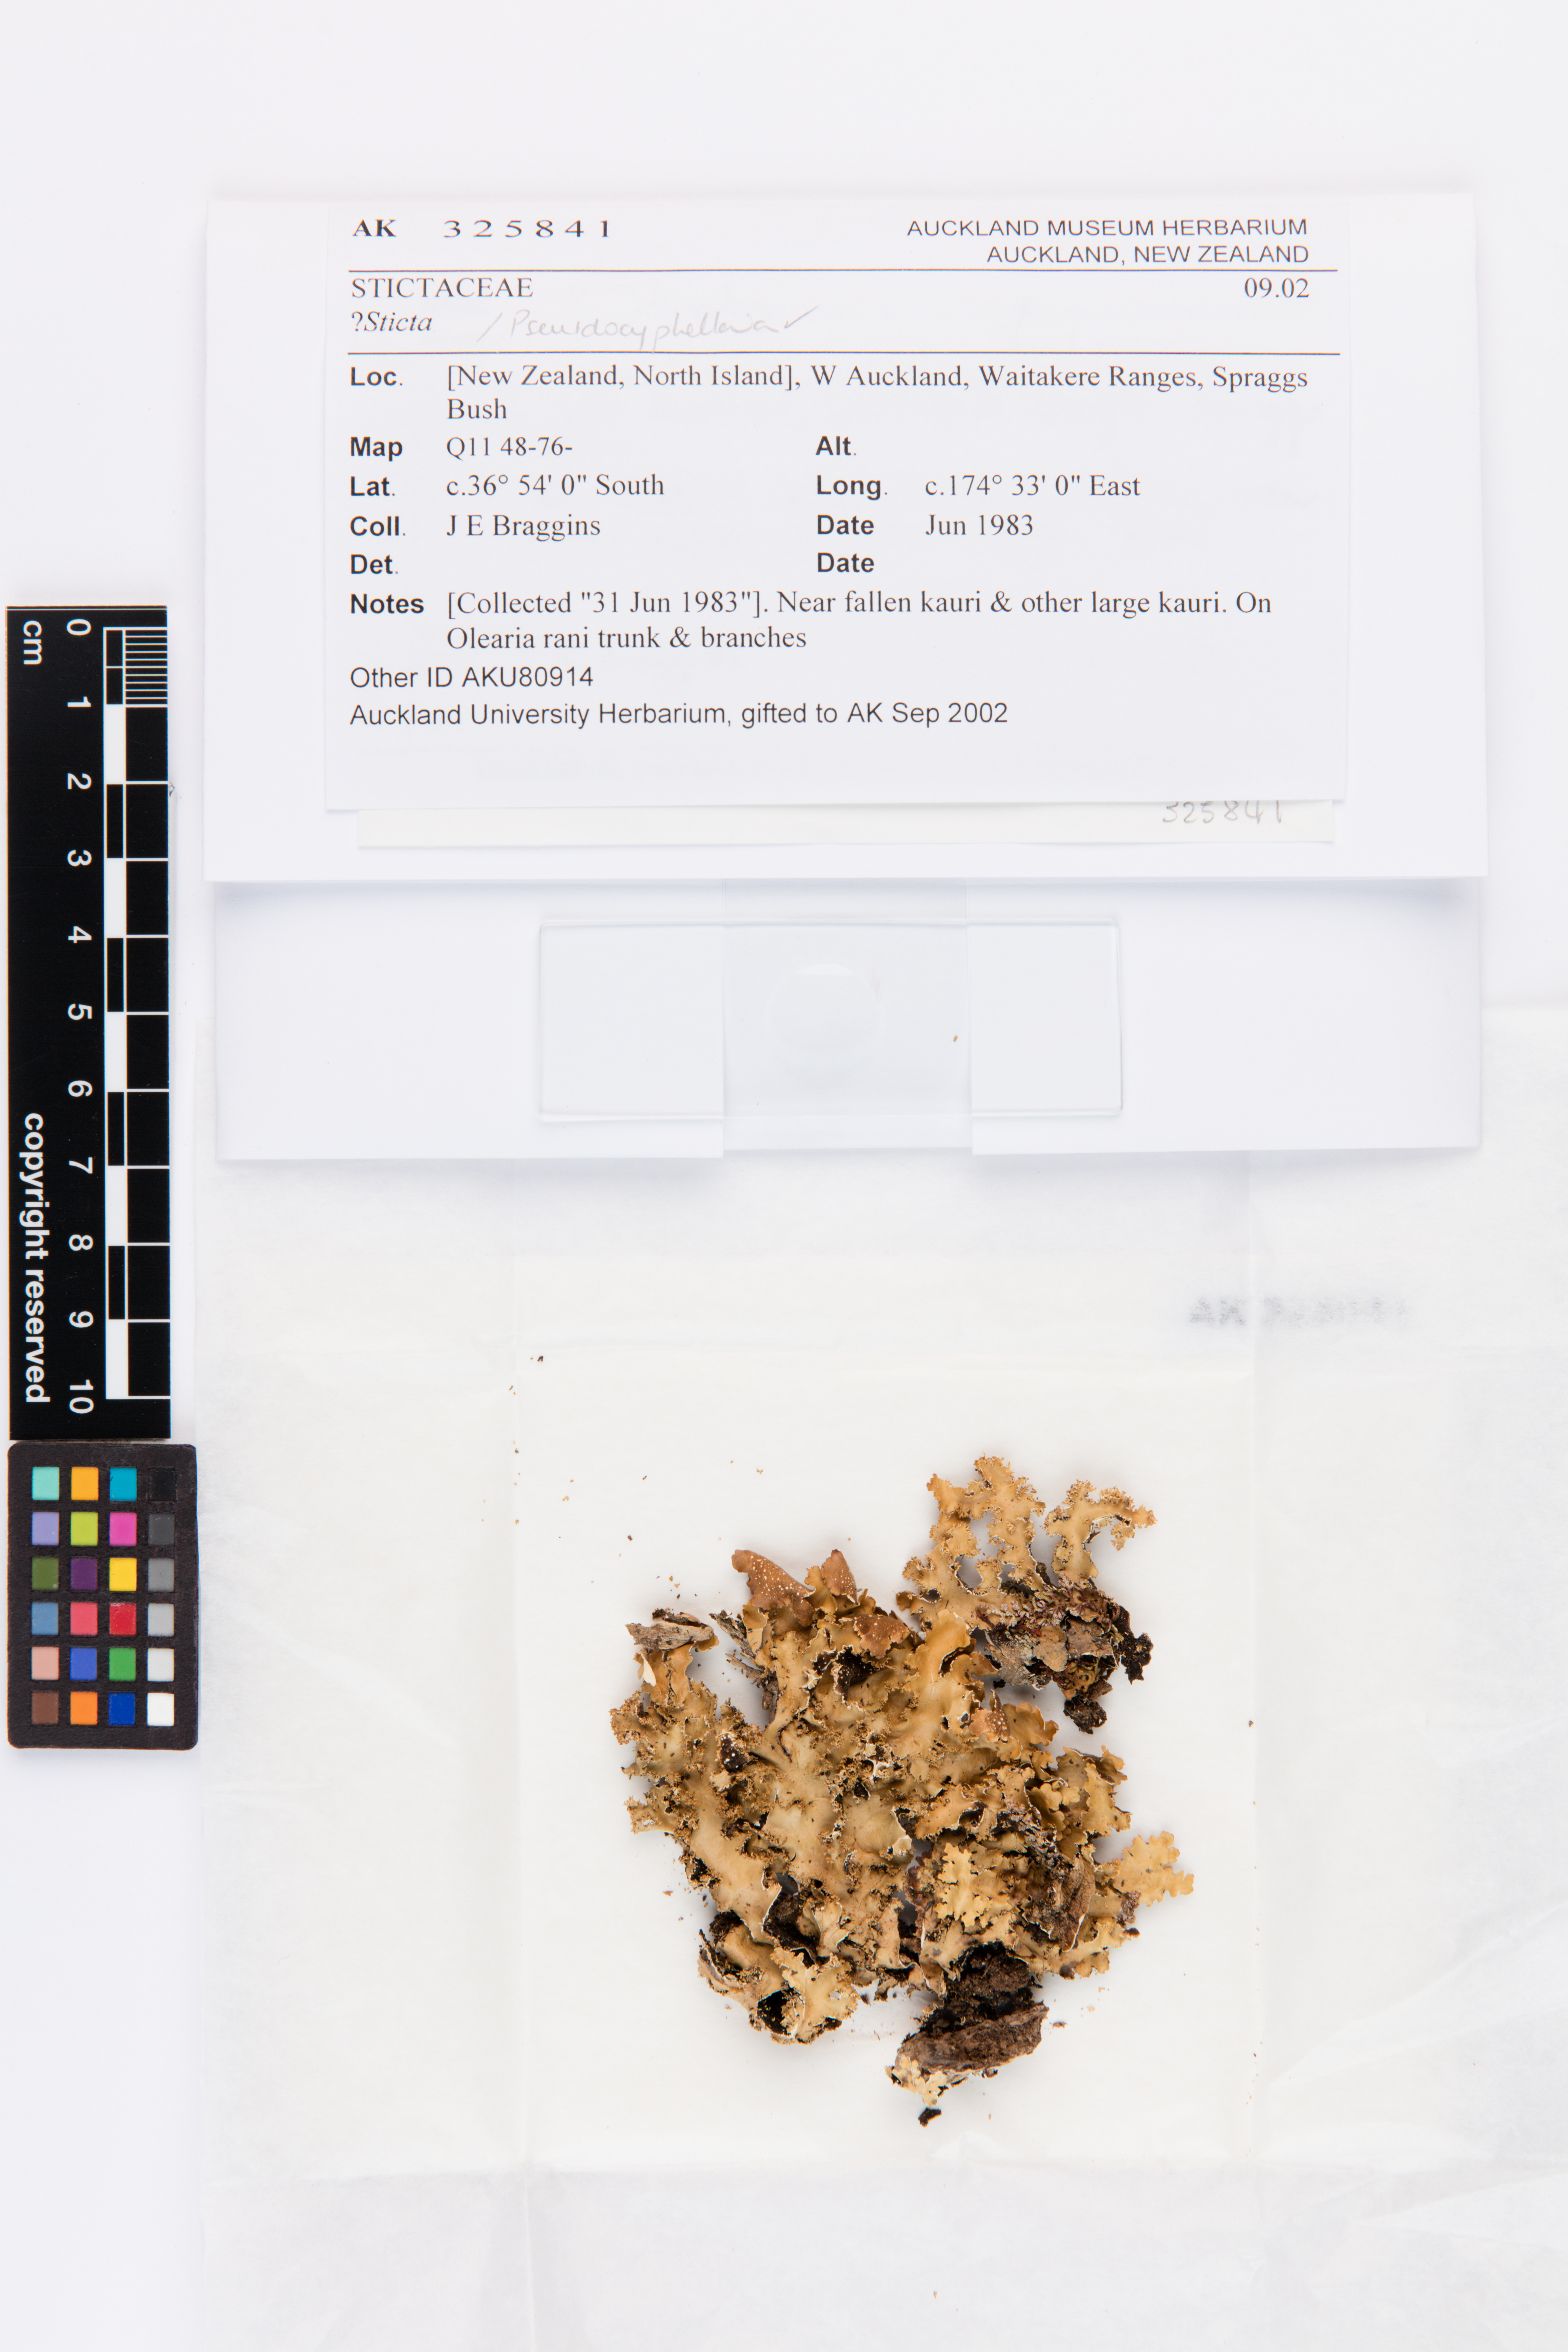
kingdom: Fungi
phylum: Ascomycota
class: Lecanoromycetes
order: Peltigerales
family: Lobariaceae
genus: Sticta
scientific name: Sticta
